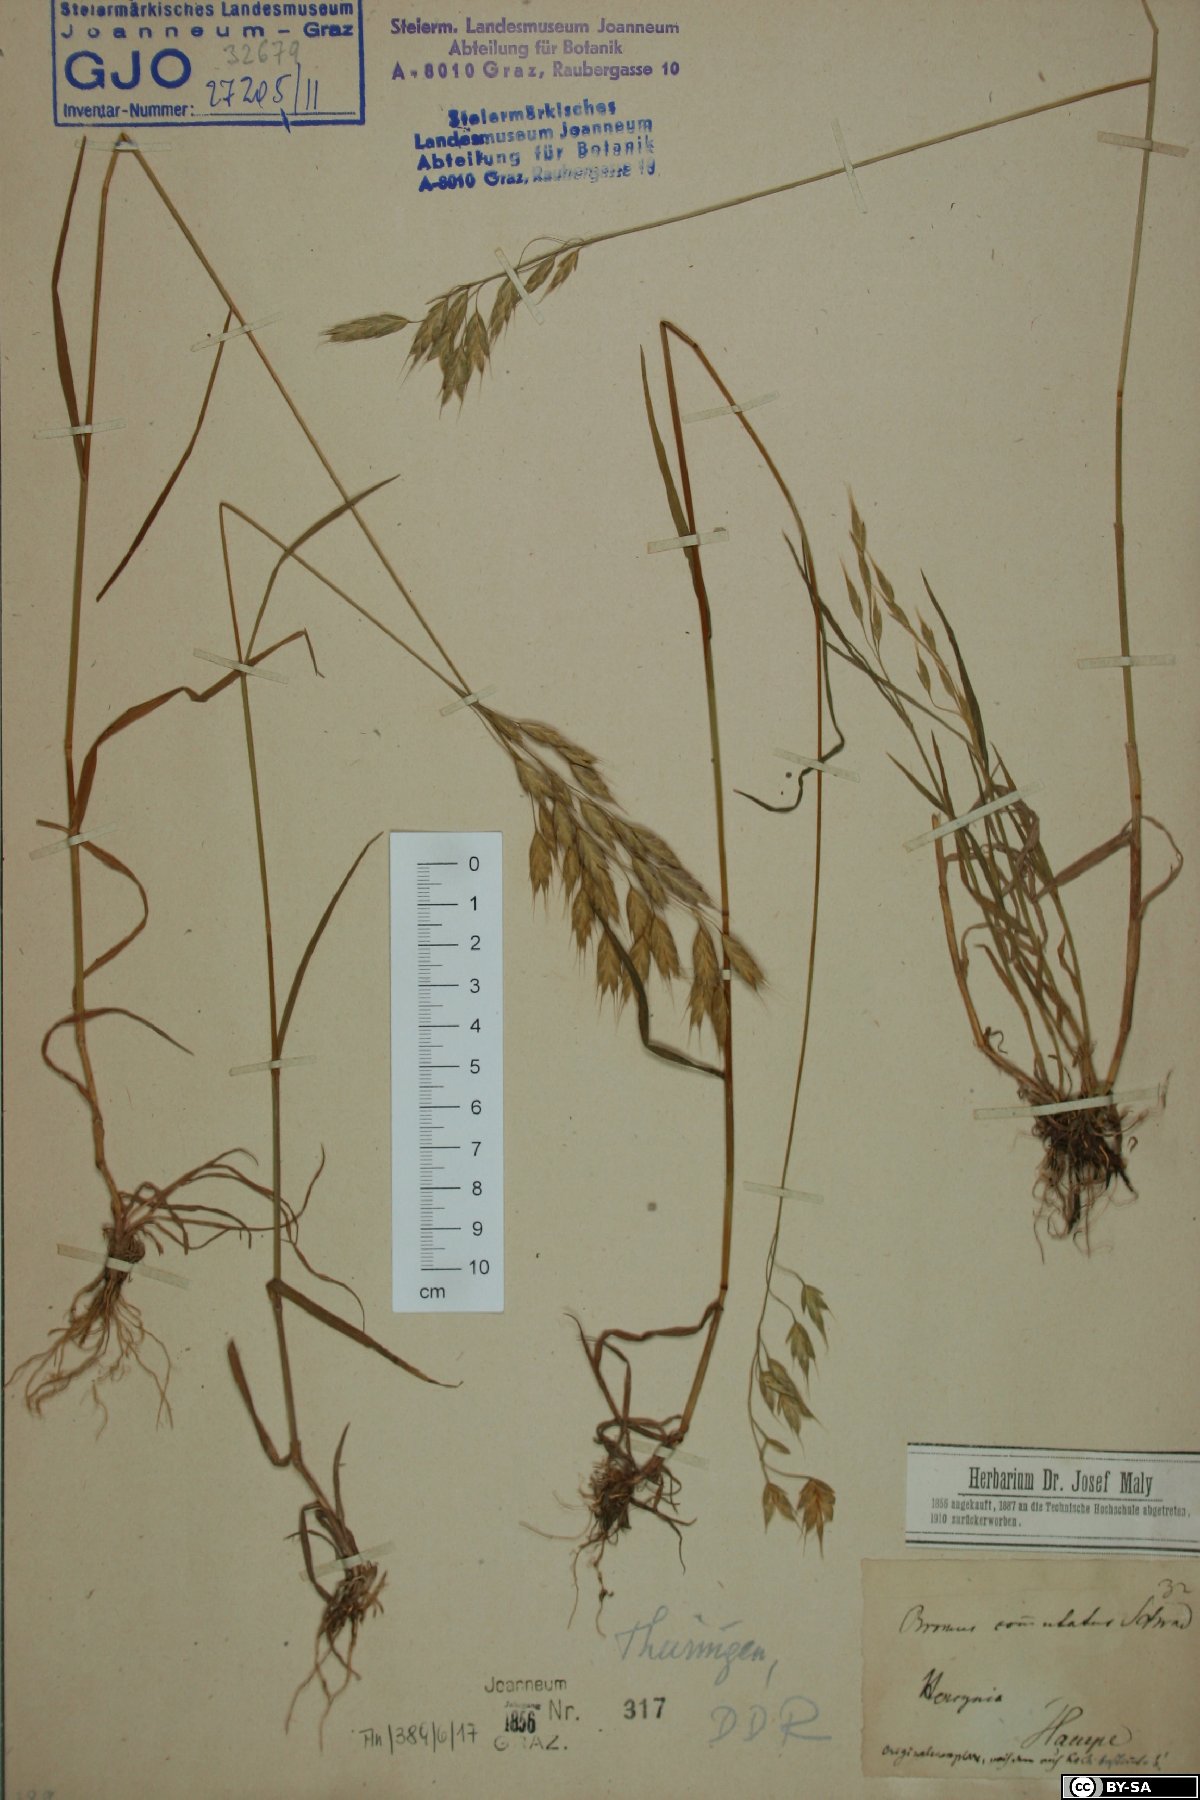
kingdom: Plantae
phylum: Tracheophyta
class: Liliopsida
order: Poales
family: Poaceae
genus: Bromus
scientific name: Bromus commutatus
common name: Meadow brome
